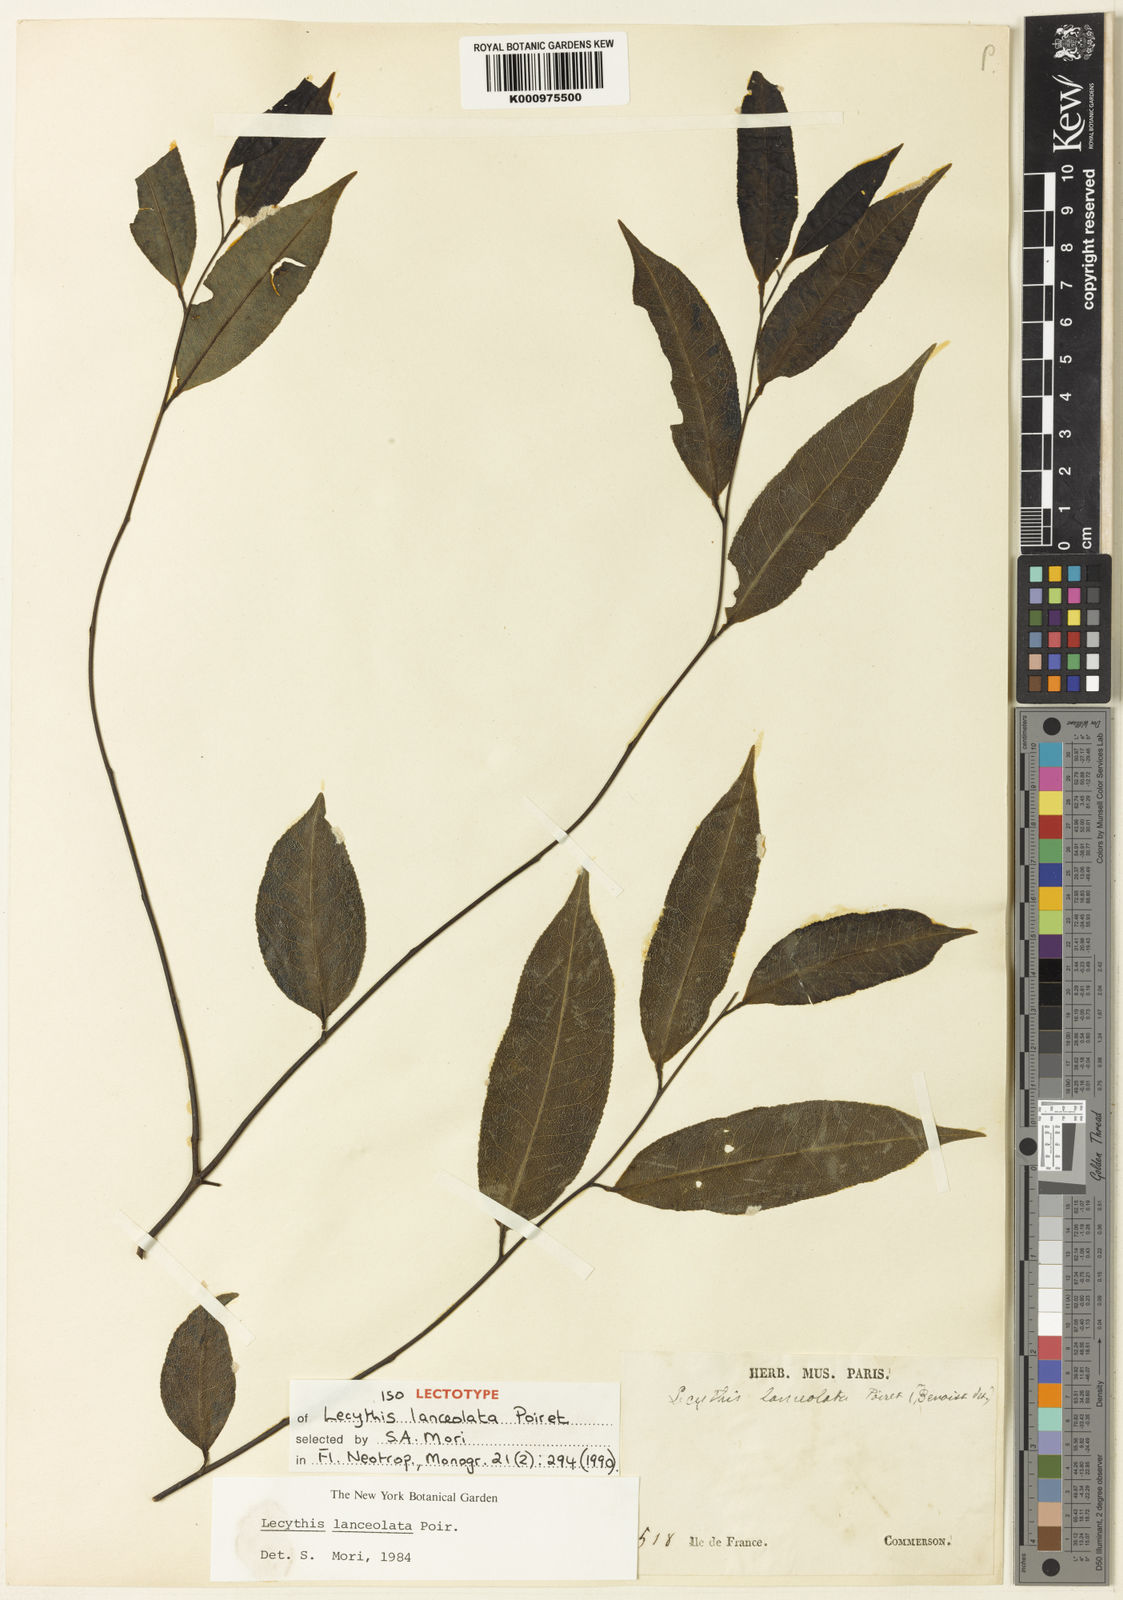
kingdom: Plantae
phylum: Tracheophyta
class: Magnoliopsida
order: Ericales
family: Lecythidaceae
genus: Lecythis
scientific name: Lecythis lanceolata
